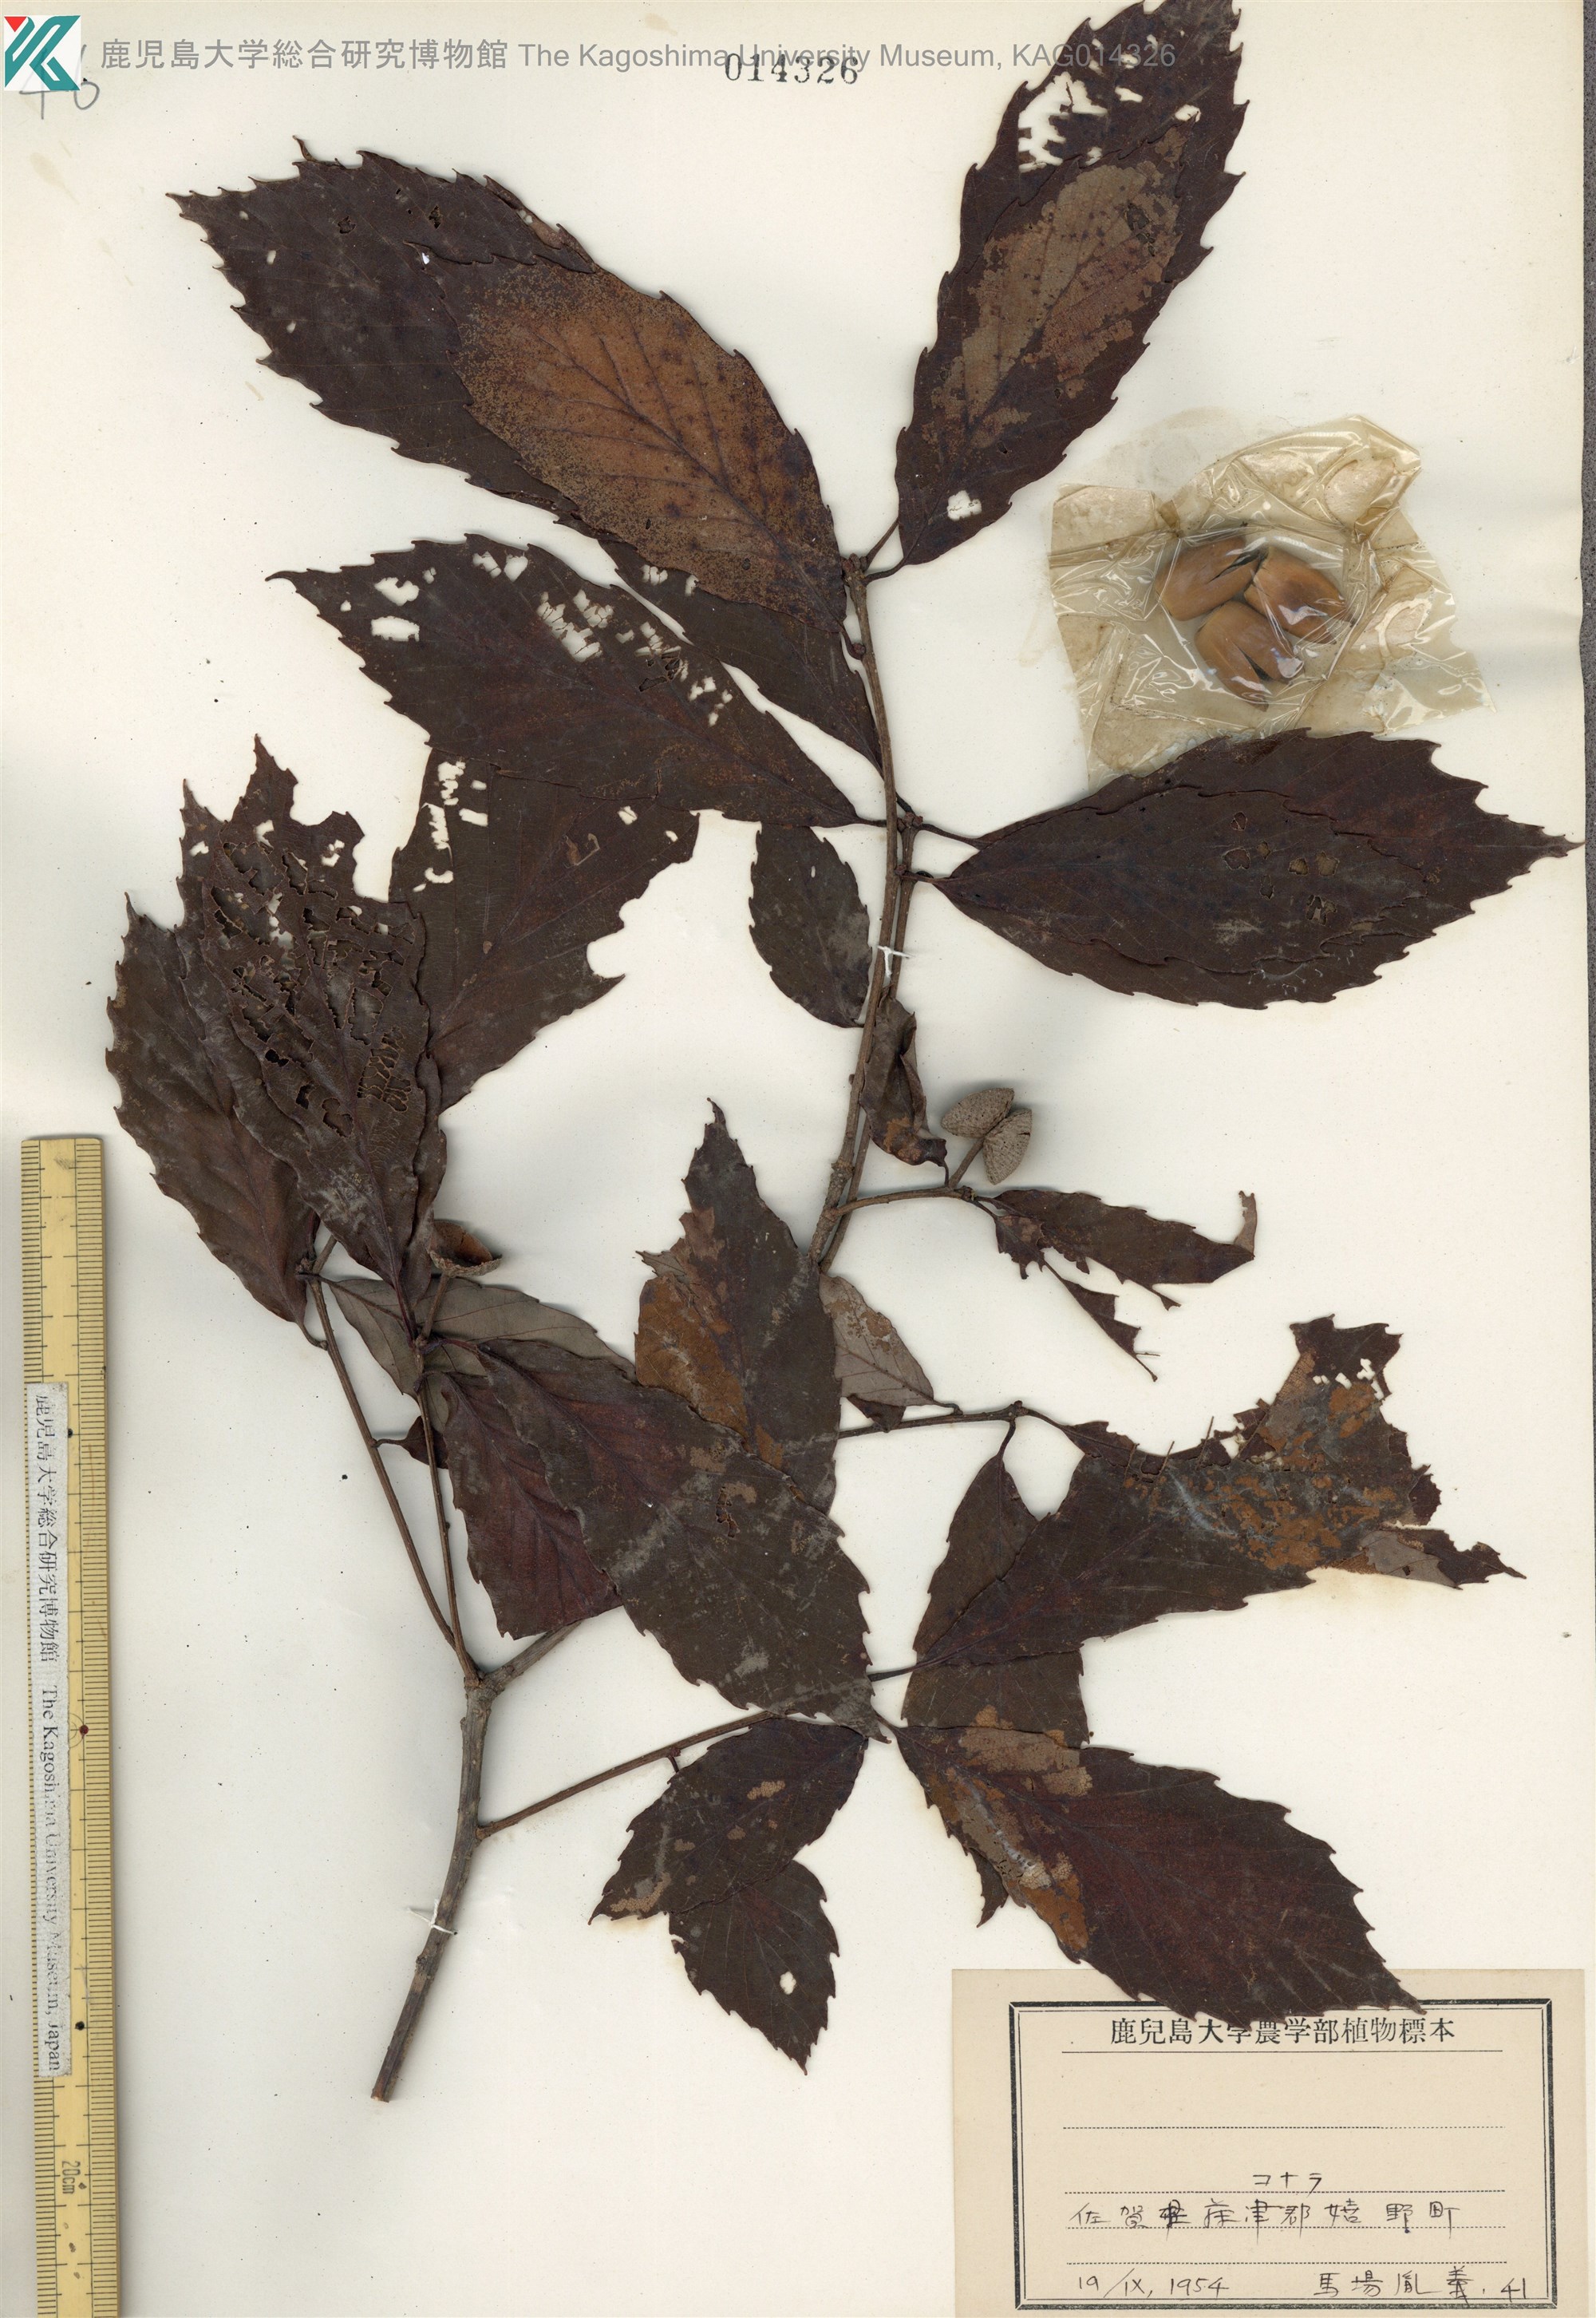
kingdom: Plantae
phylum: Tracheophyta
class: Magnoliopsida
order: Fagales
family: Fagaceae
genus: Quercus
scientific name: Quercus serrata
